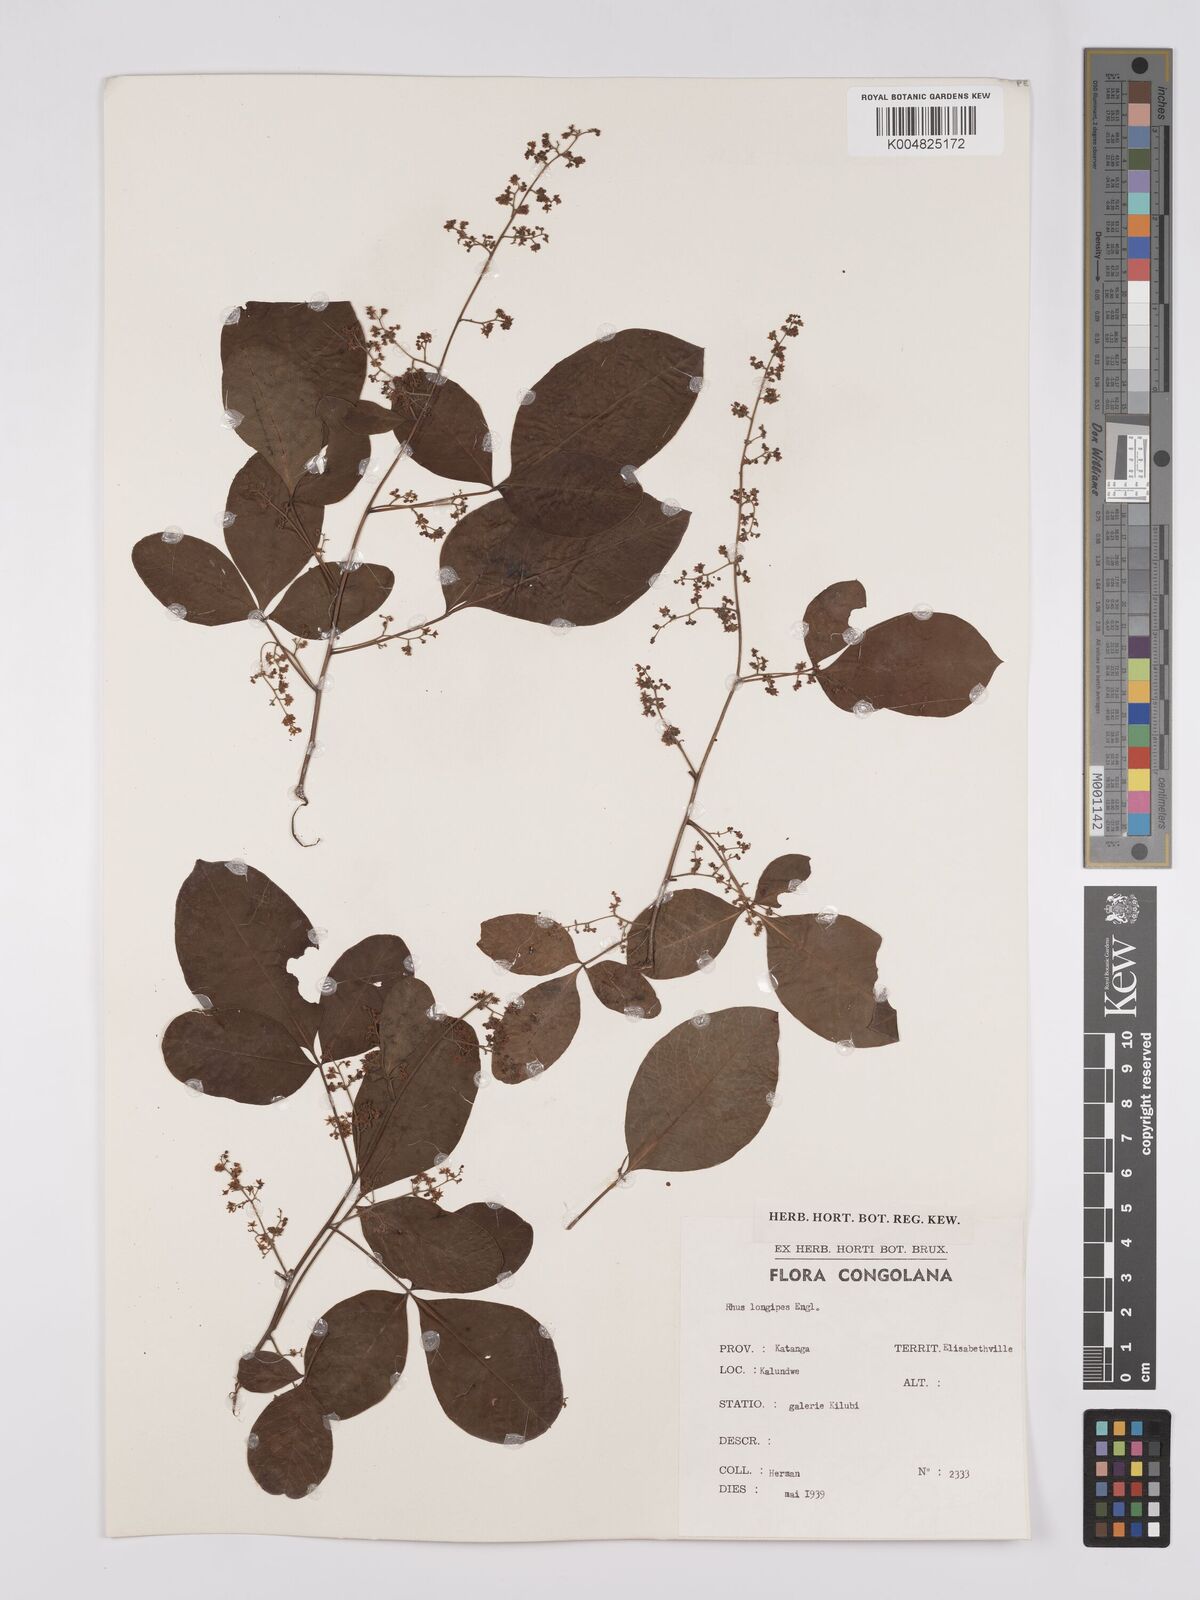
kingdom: Plantae
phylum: Tracheophyta
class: Magnoliopsida
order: Sapindales
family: Anacardiaceae
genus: Searsia
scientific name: Searsia longipes
